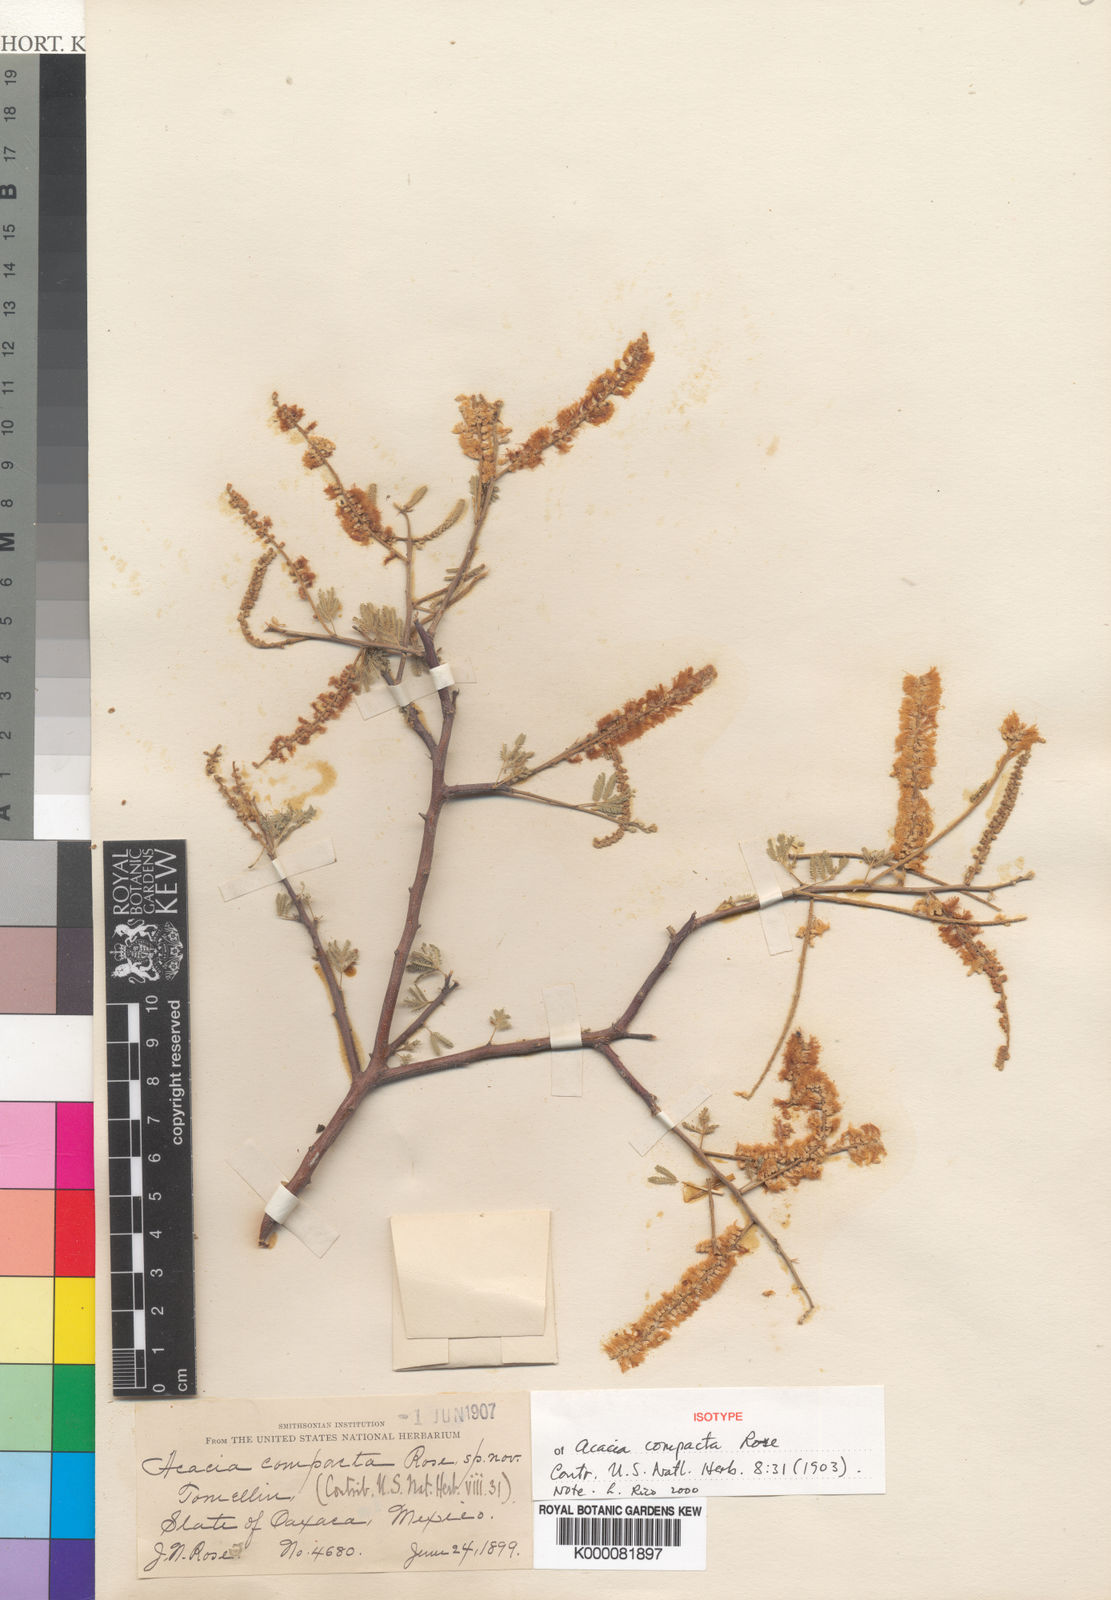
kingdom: Plantae
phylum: Tracheophyta
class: Magnoliopsida
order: Fabales
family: Fabaceae
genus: Mariosousa
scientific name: Mariosousa compacta
